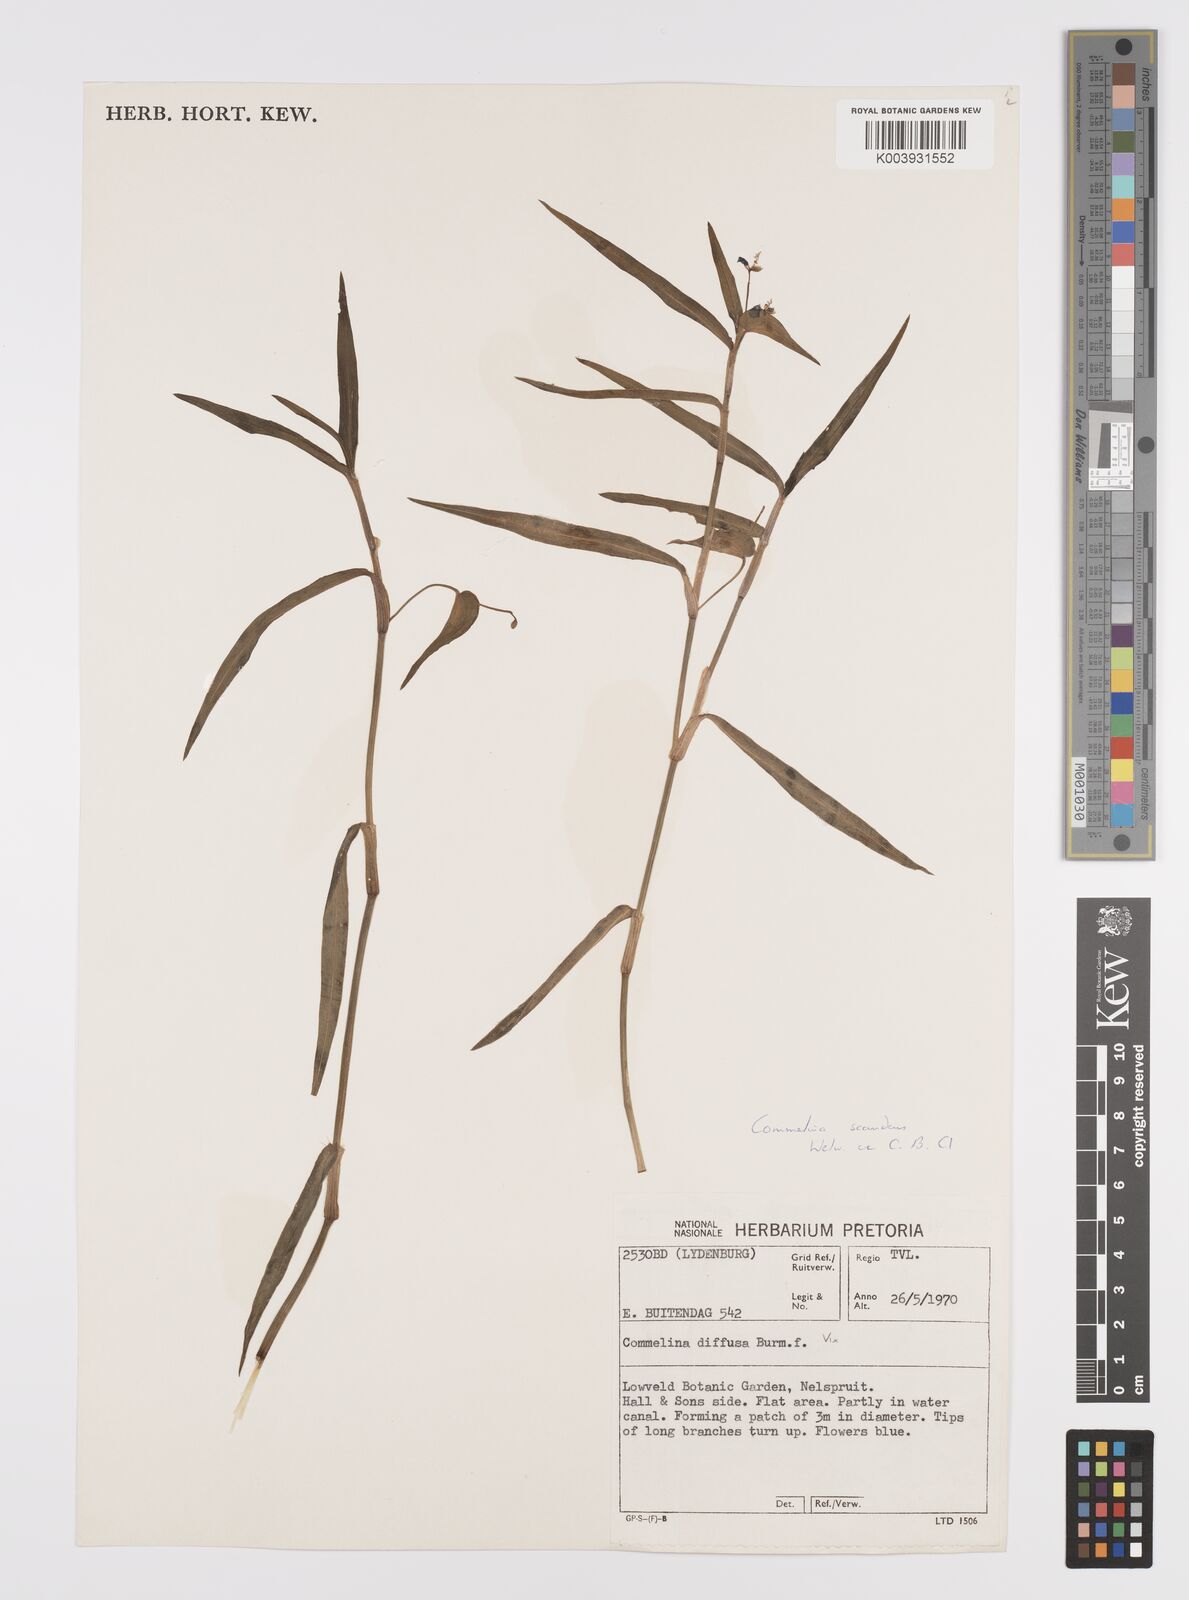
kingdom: Plantae
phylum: Tracheophyta
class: Liliopsida
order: Commelinales
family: Commelinaceae
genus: Commelina
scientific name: Commelina scandens
